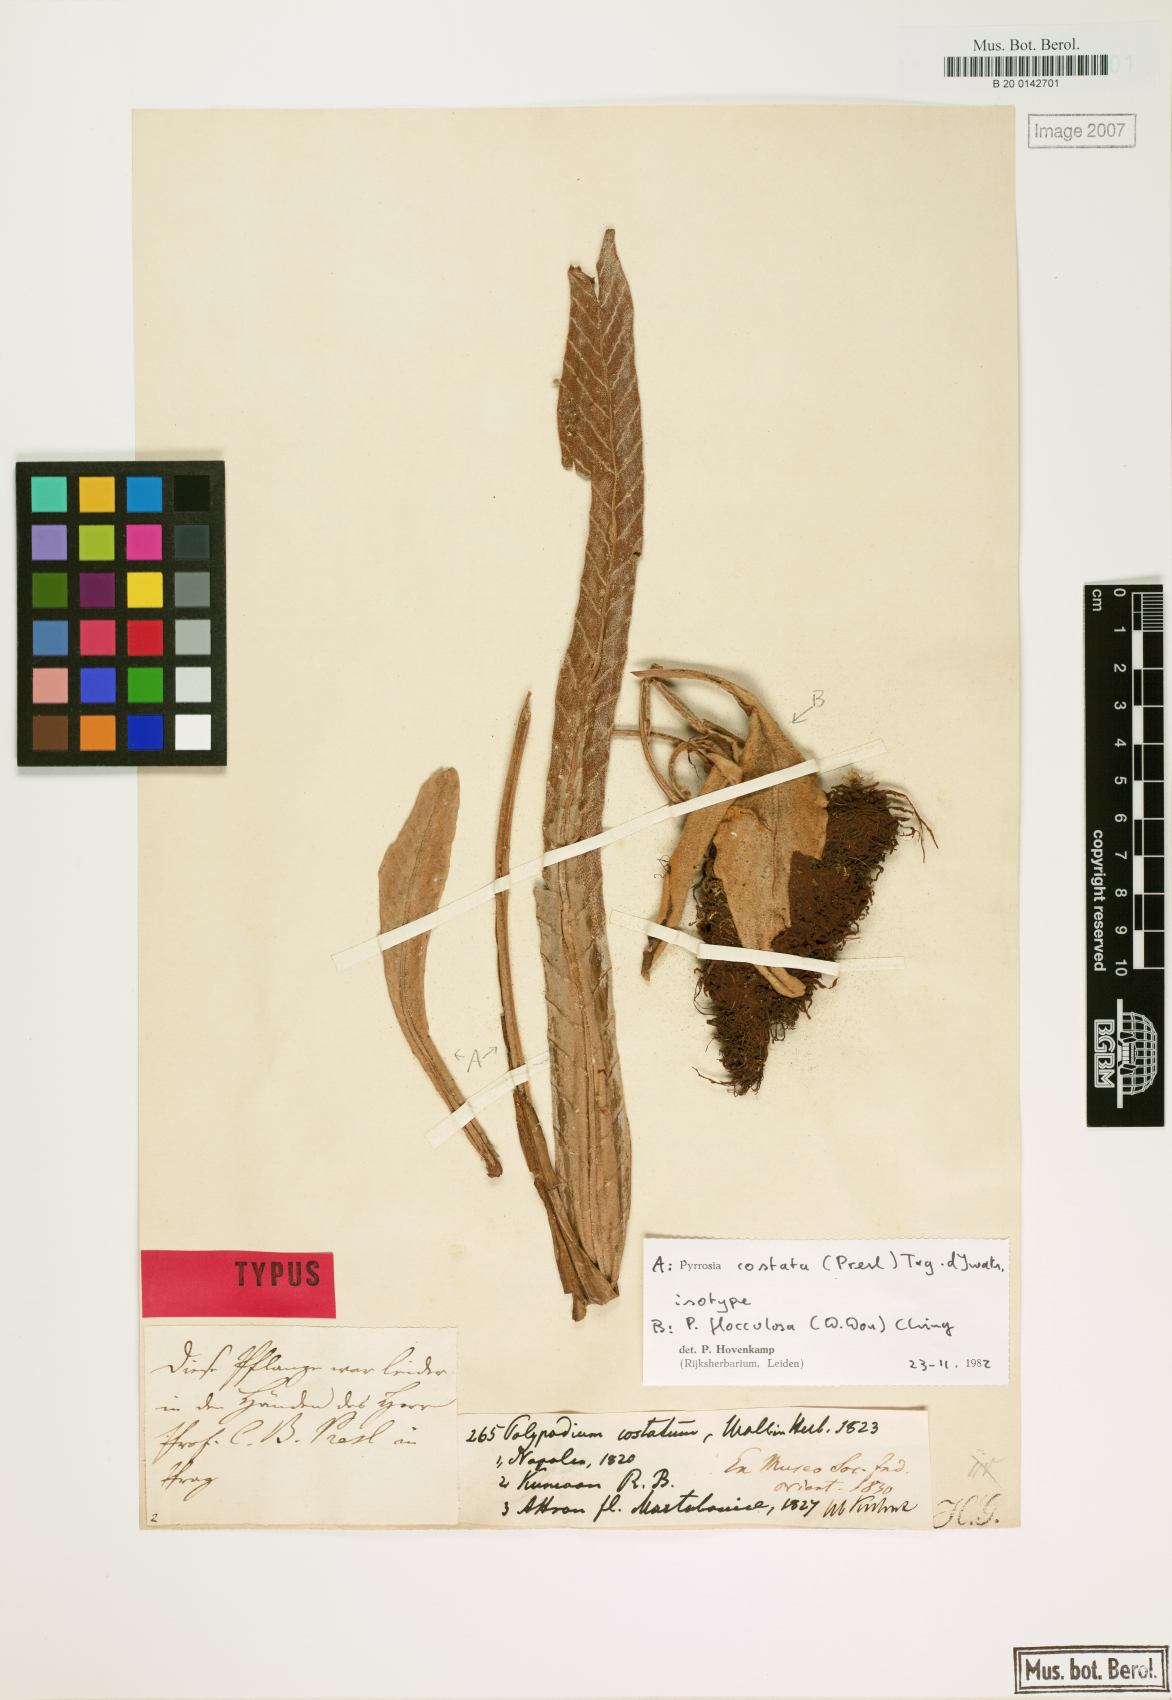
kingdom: Plantae
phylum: Tracheophyta
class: Polypodiopsida
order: Polypodiales
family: Polypodiaceae
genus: Pyrrosia
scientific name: Pyrrosia costata
